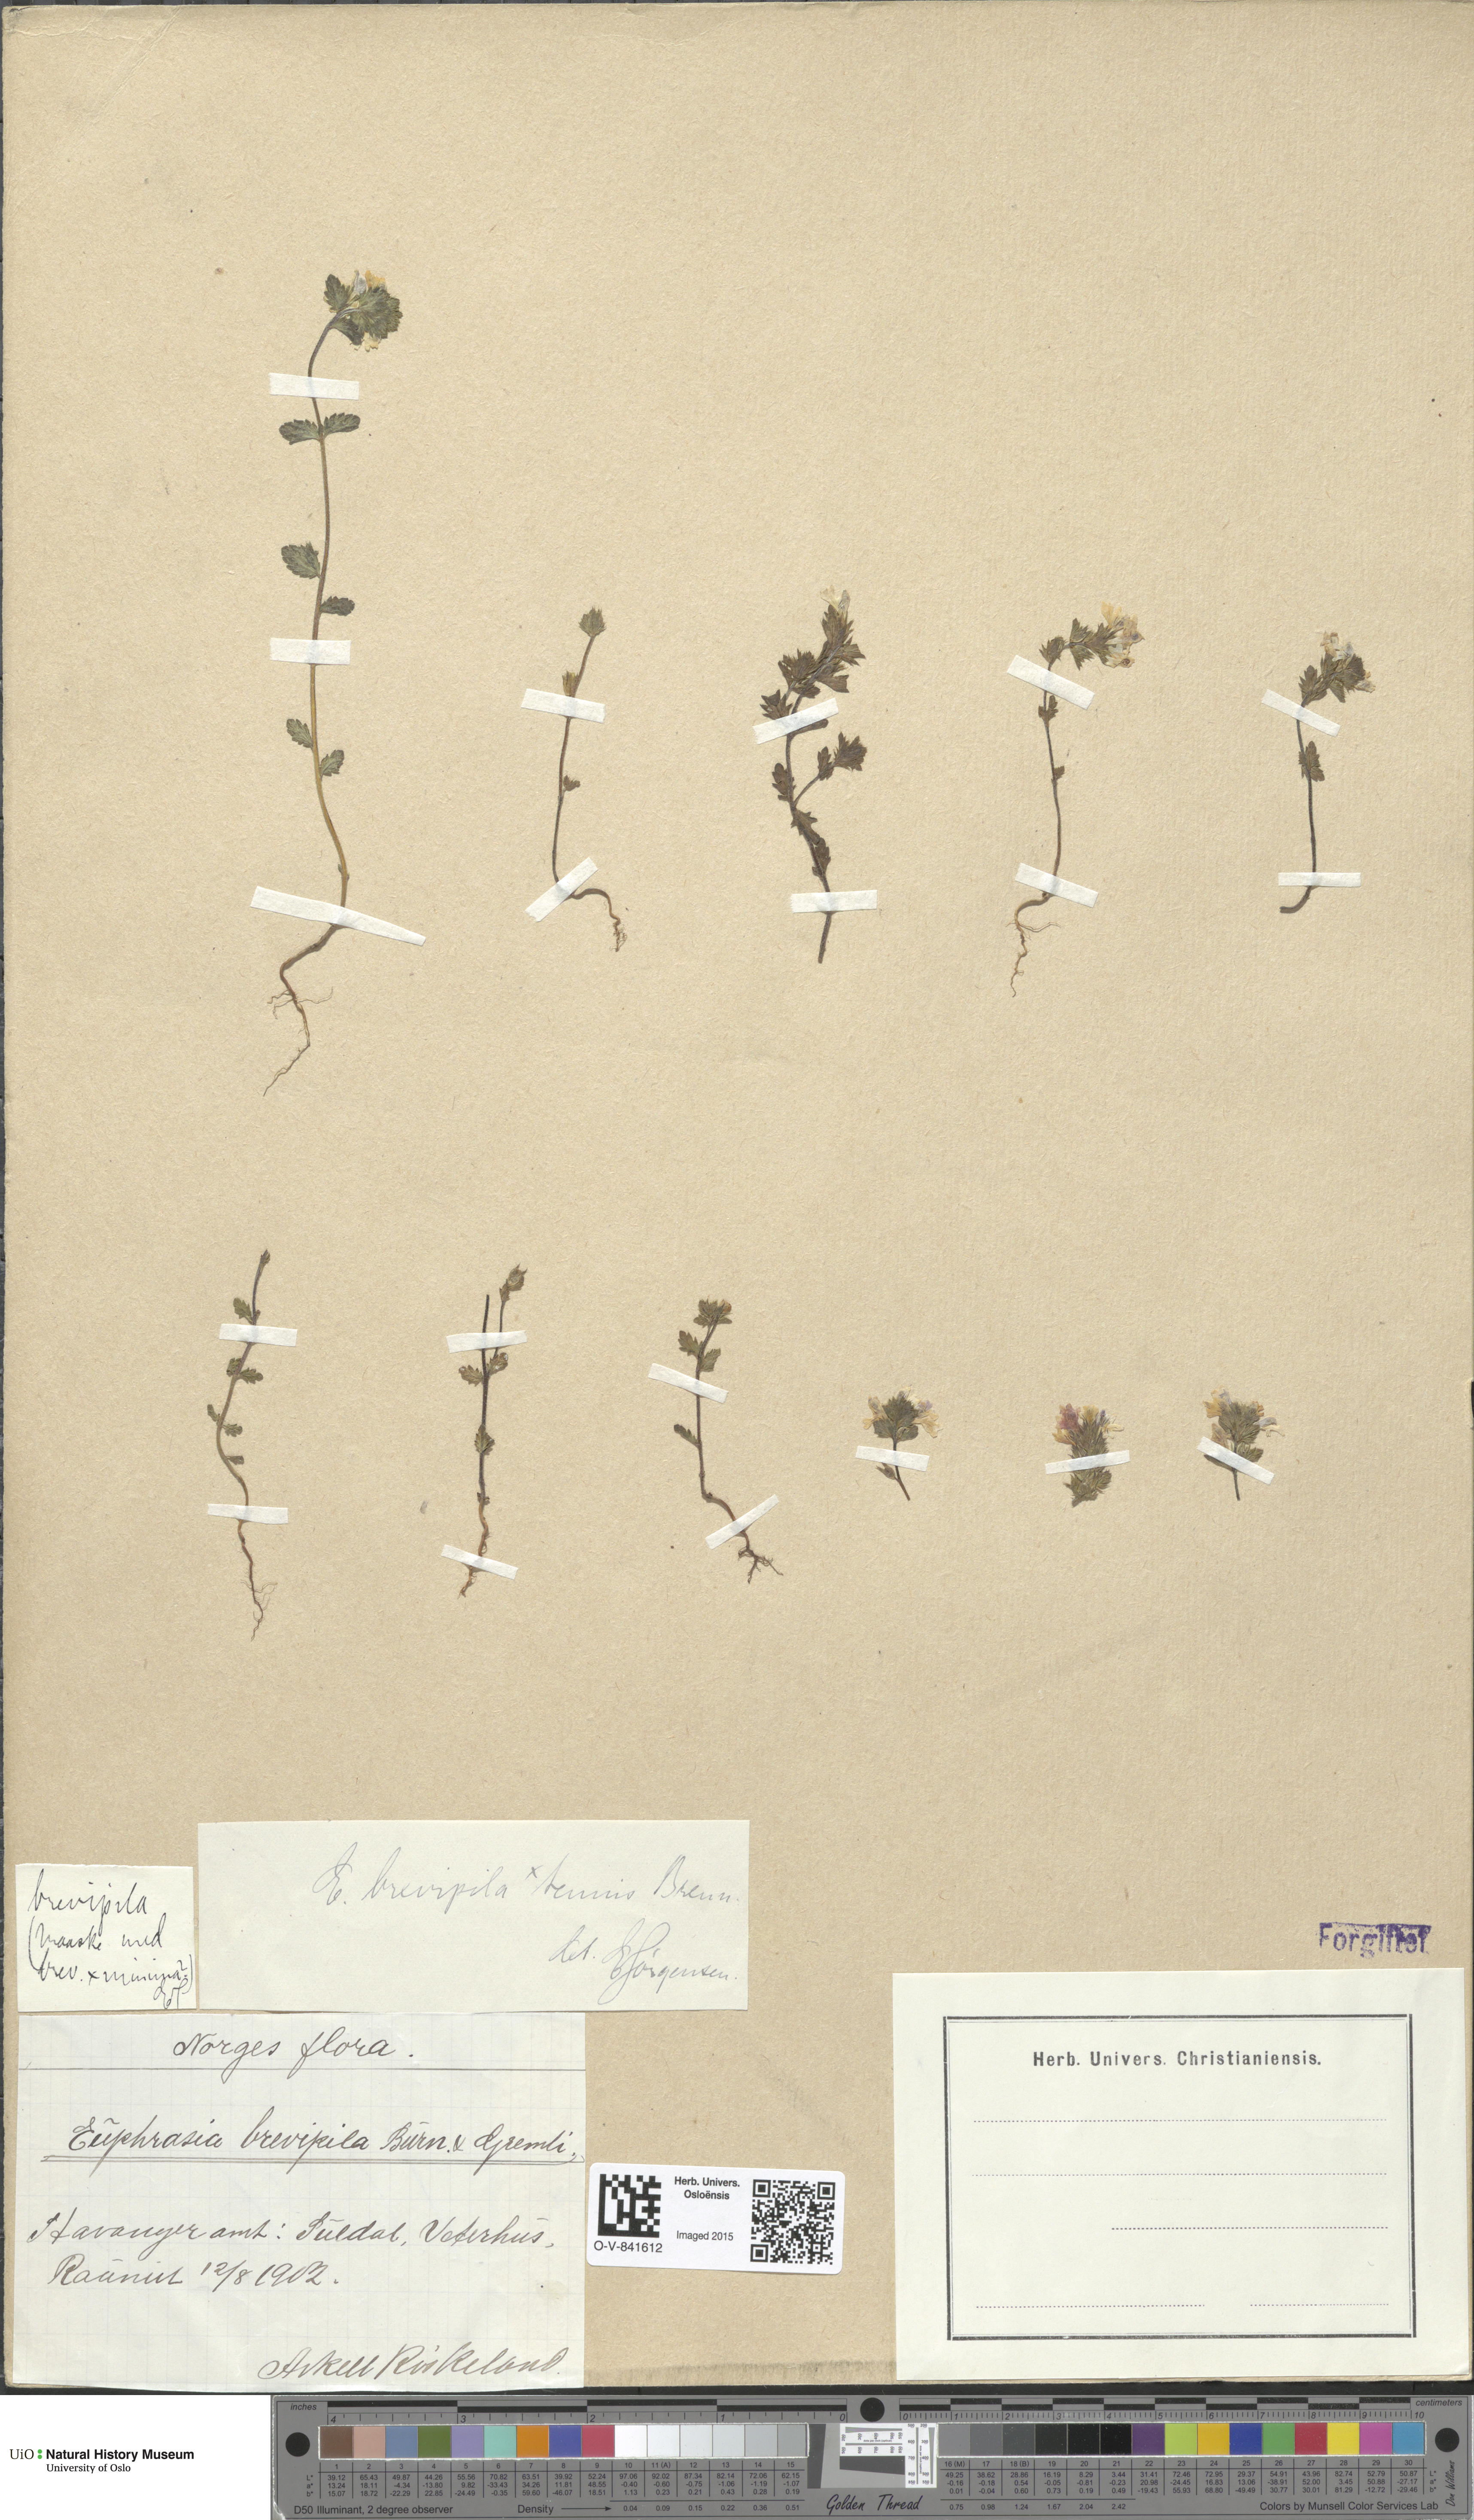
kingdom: Plantae
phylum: Tracheophyta
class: Magnoliopsida
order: Lamiales
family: Orobanchaceae
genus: Euphrasia
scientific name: Euphrasia vernalis
